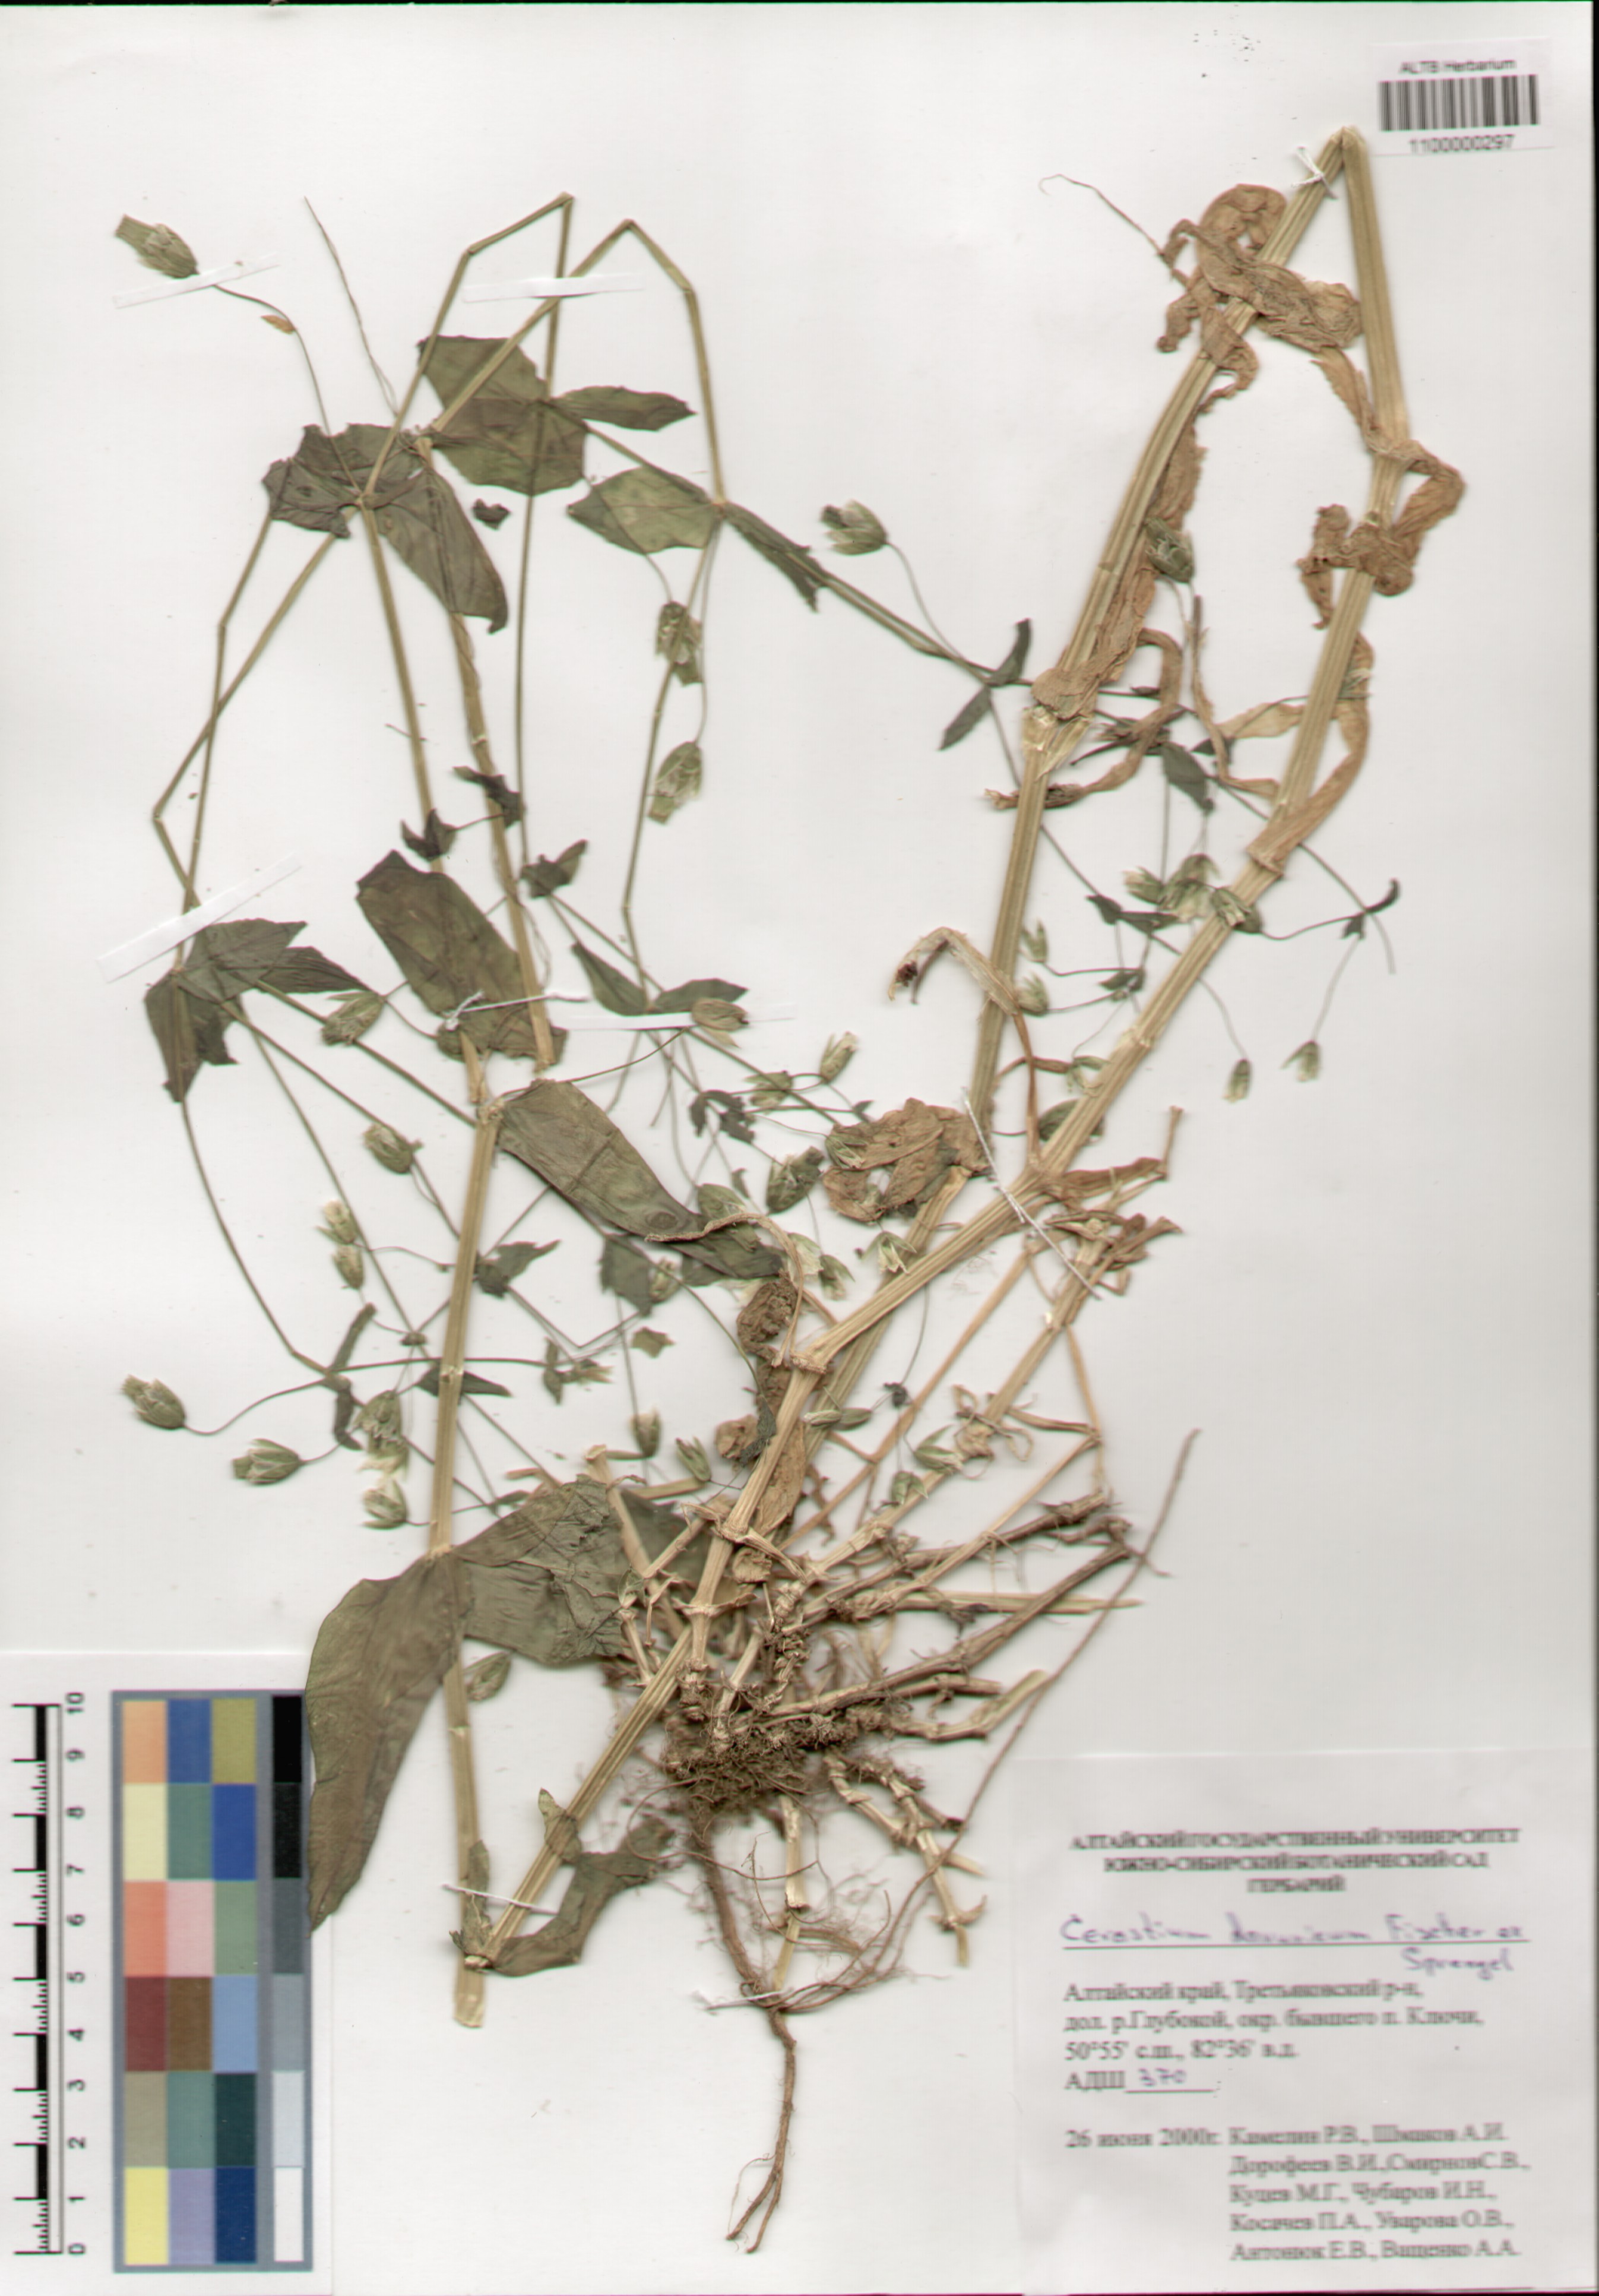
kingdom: Plantae
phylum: Tracheophyta
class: Magnoliopsida
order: Caryophyllales
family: Caryophyllaceae
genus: Dichodon
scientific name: Dichodon davuricum
